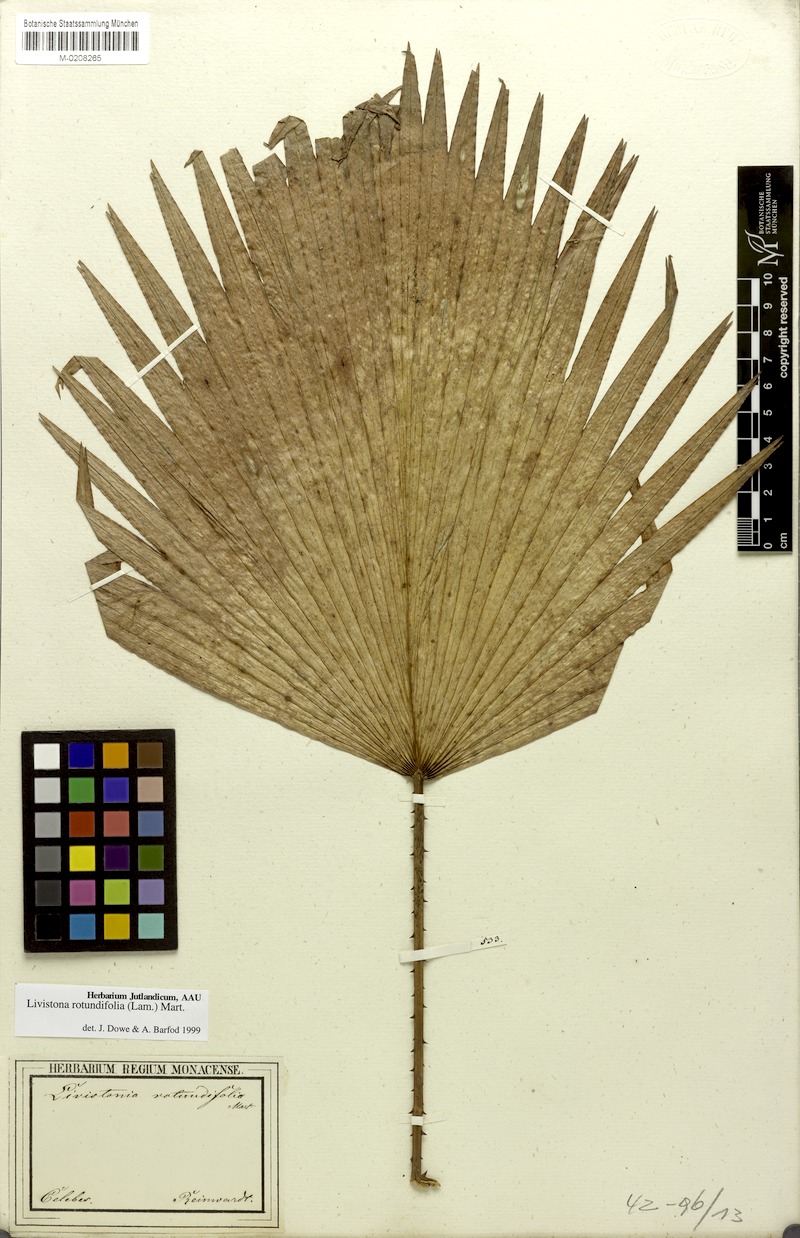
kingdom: Plantae
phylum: Tracheophyta
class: Liliopsida
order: Arecales
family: Arecaceae
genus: Saribus
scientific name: Saribus rotundifolius
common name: Palm
